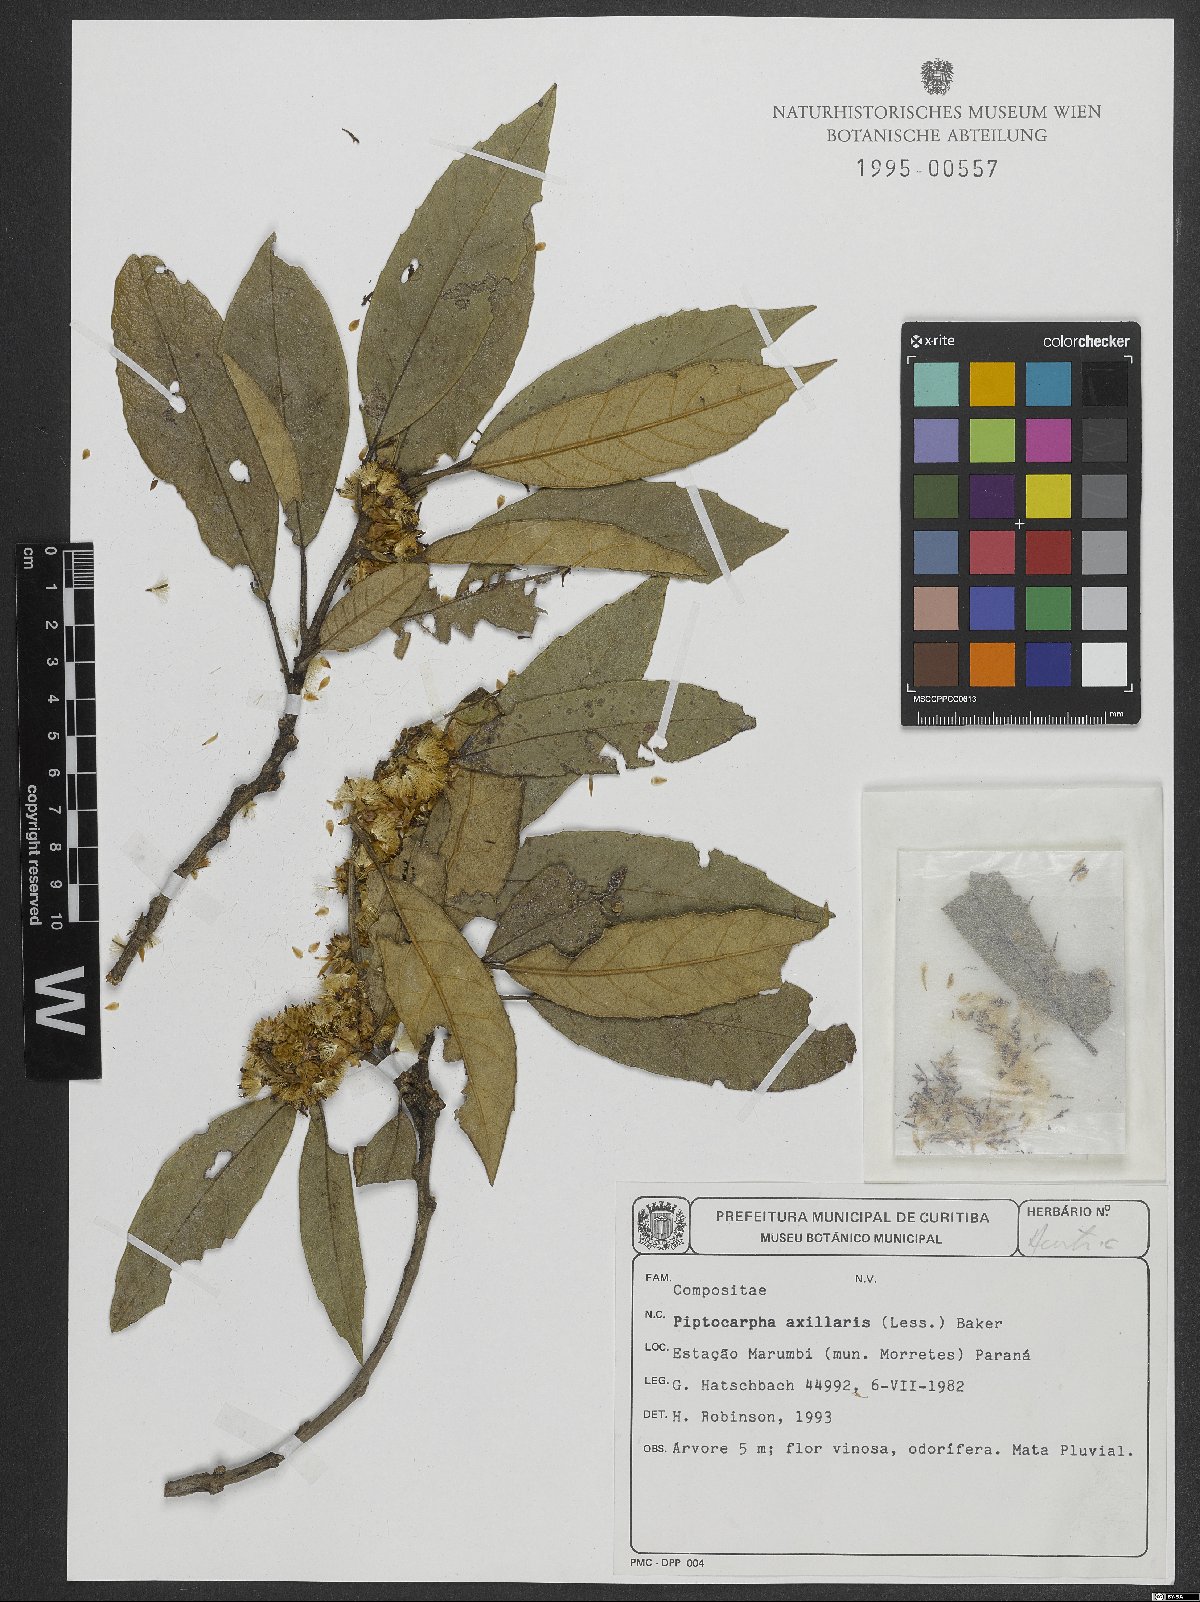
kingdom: Plantae
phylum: Tracheophyta
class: Magnoliopsida
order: Asterales
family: Asteraceae
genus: Piptocarpha
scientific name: Piptocarpha axillaris
